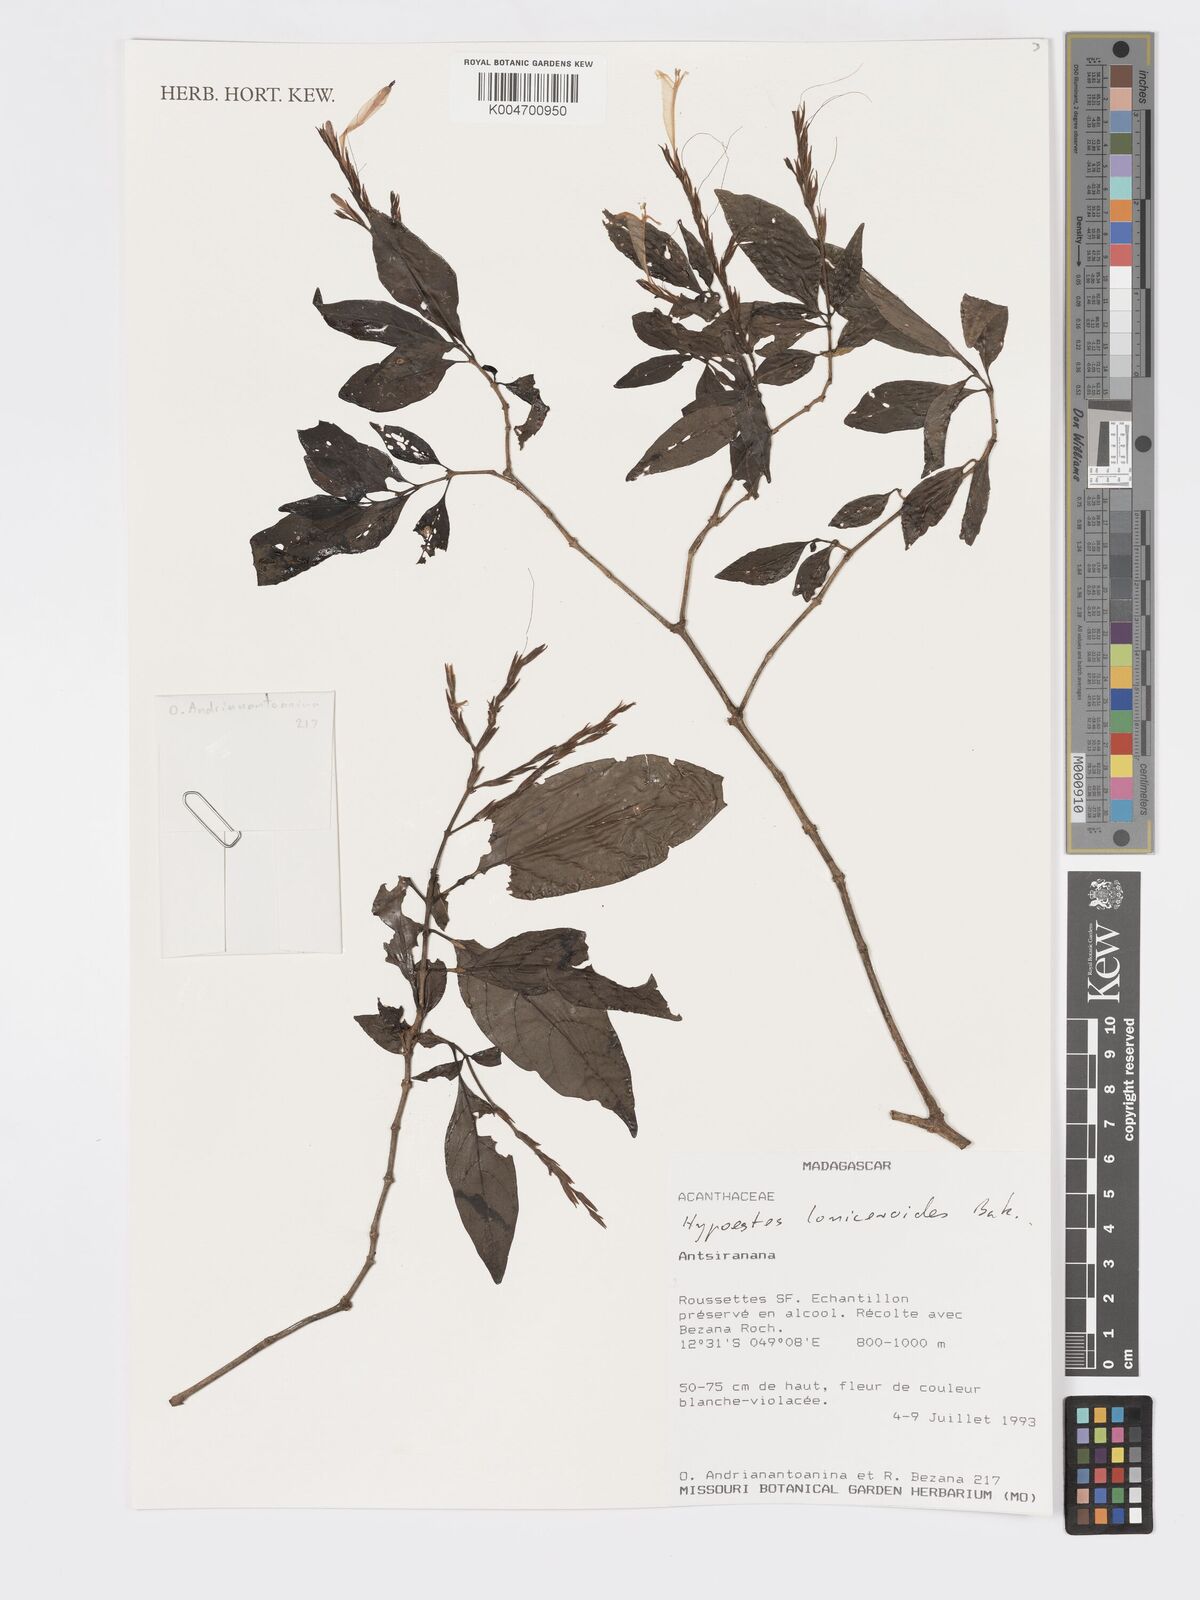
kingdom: Plantae
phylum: Tracheophyta
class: Magnoliopsida
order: Lamiales
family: Acanthaceae
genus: Hypoestes
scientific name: Hypoestes
